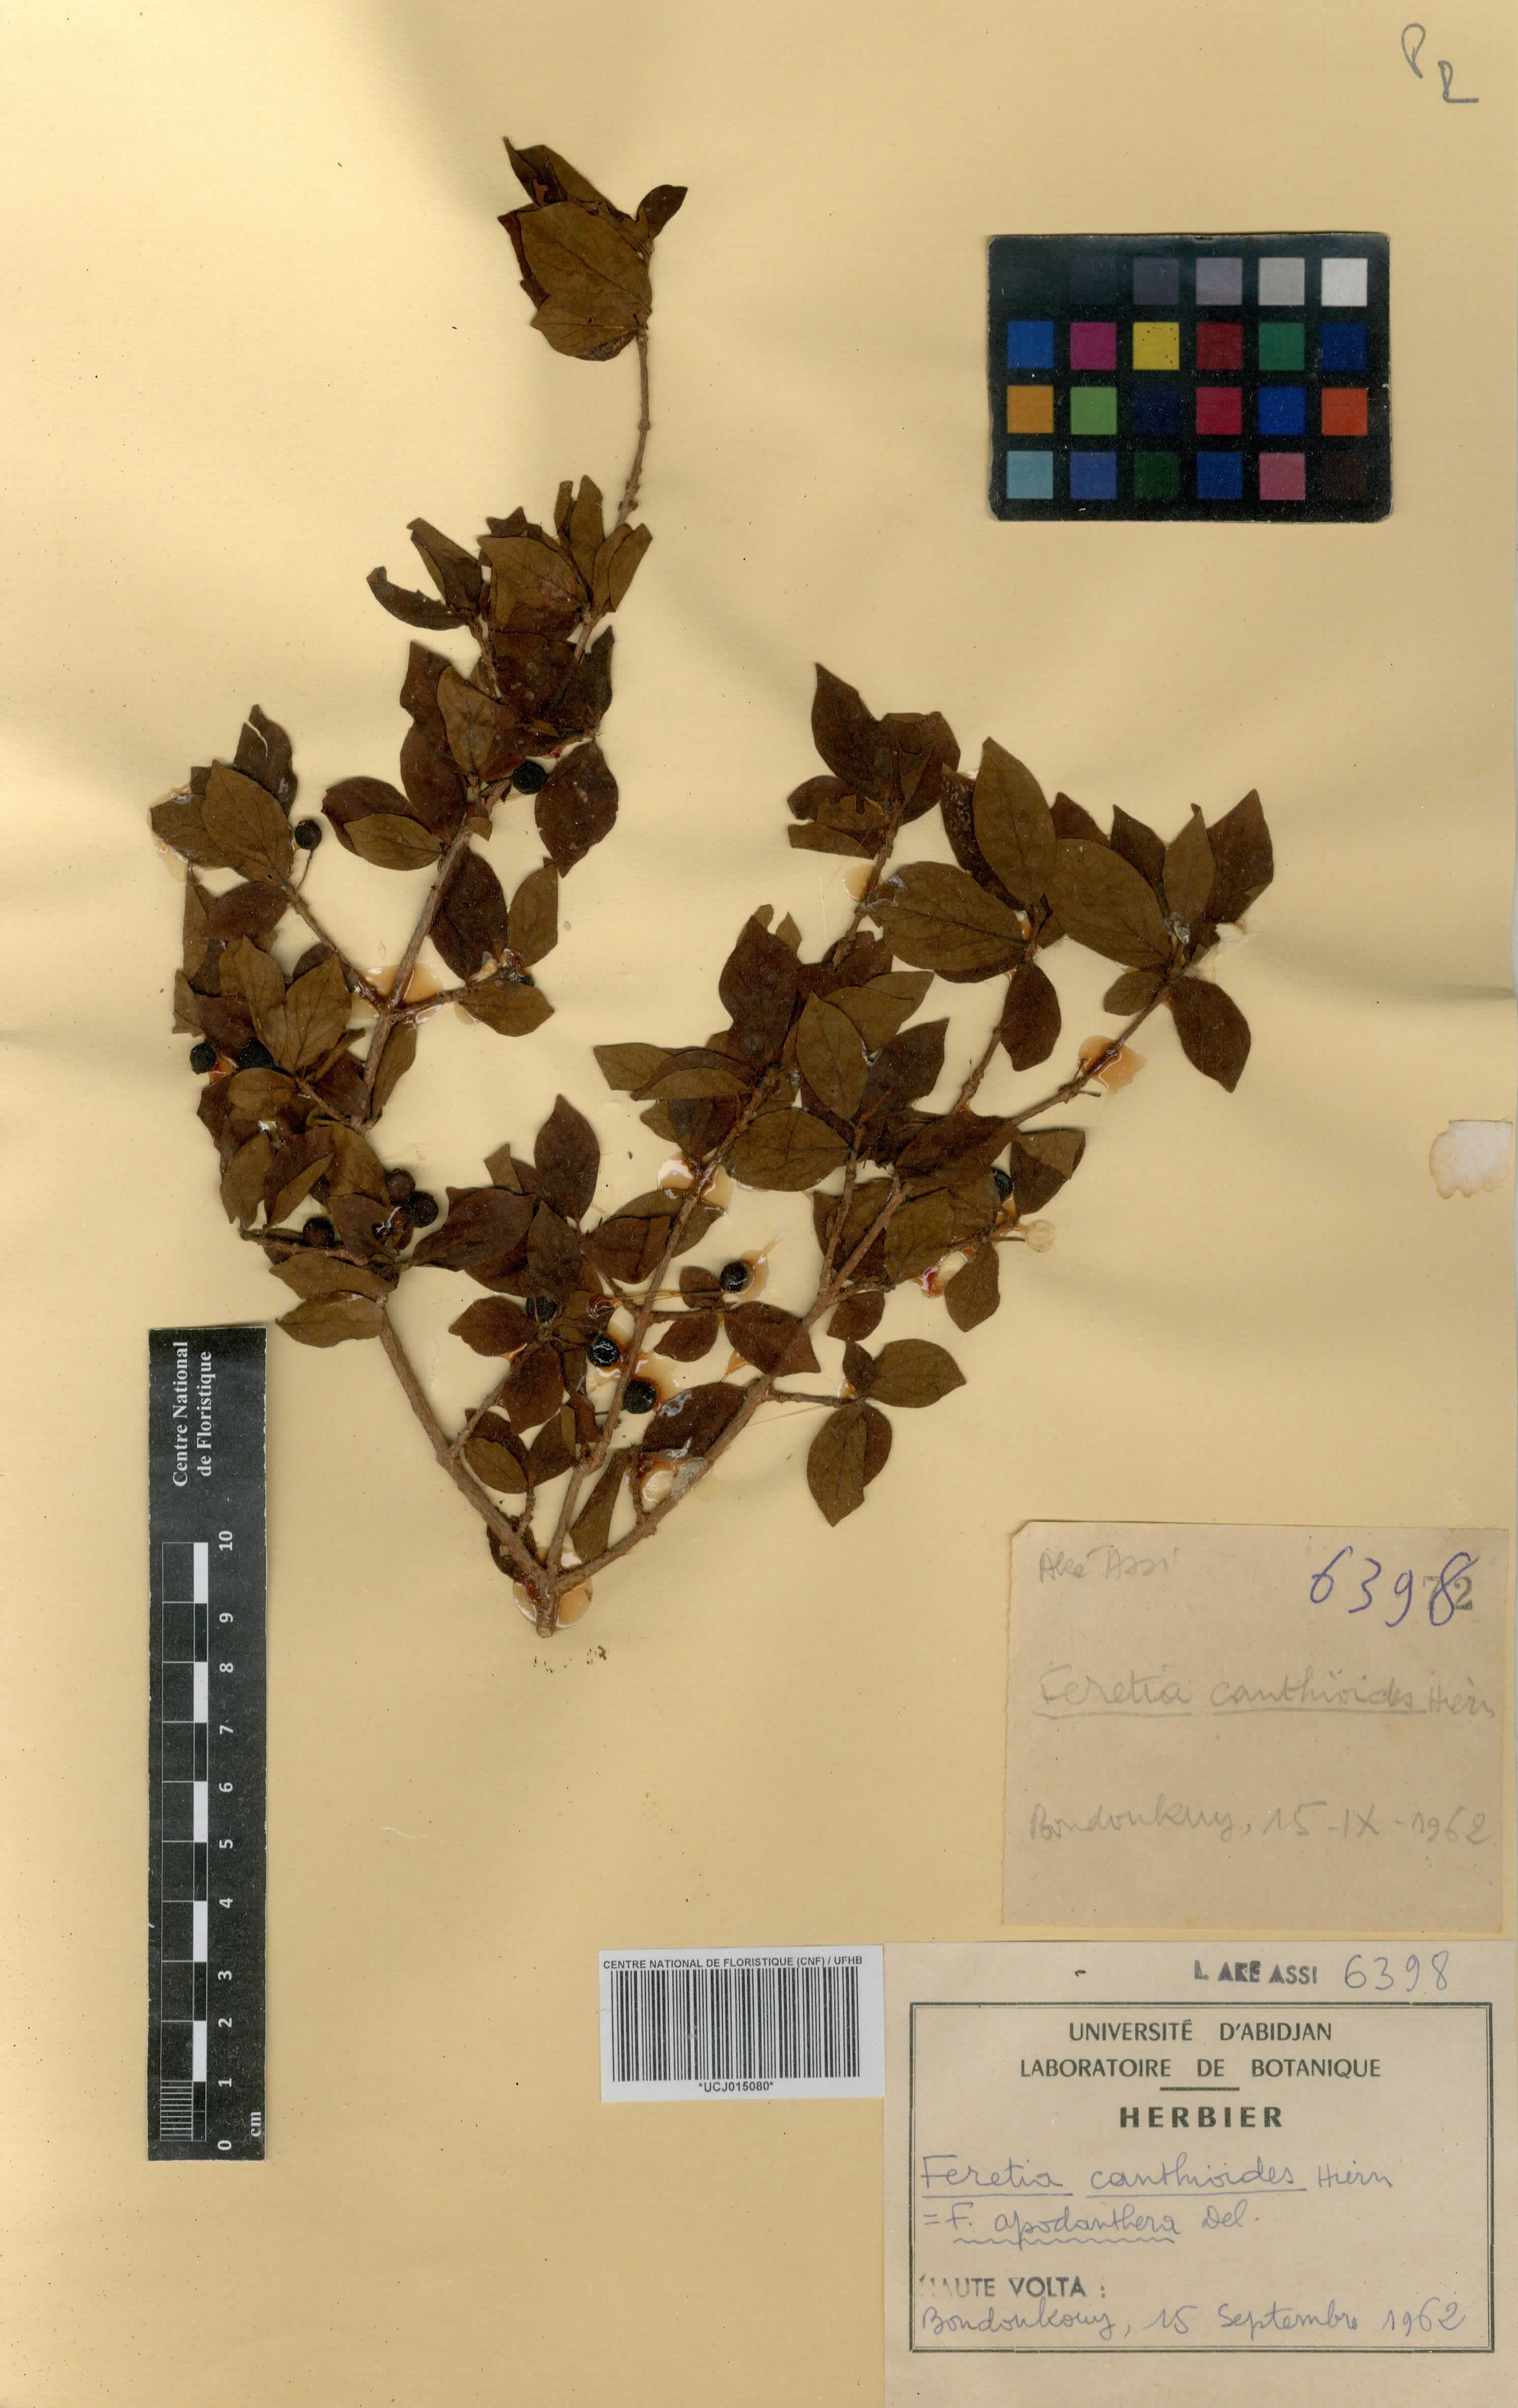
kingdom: Plantae
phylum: Tracheophyta
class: Magnoliopsida
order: Gentianales
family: Rubiaceae
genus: Feretia
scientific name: Feretia apodanthera
